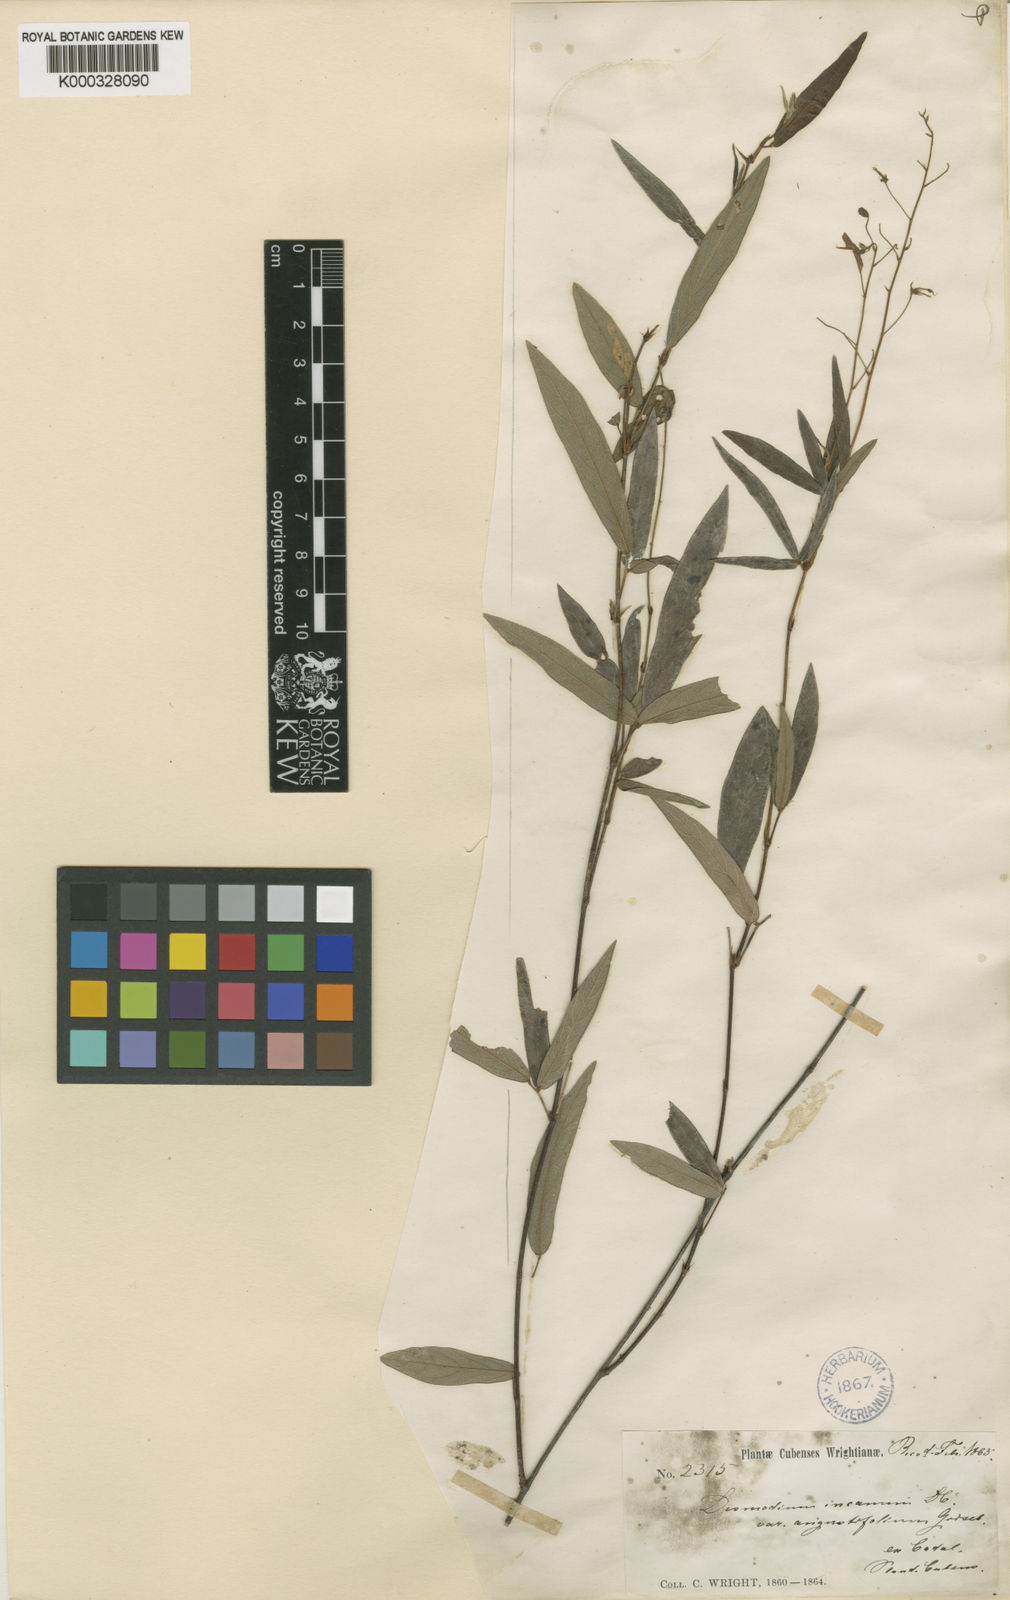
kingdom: Plantae
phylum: Tracheophyta
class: Magnoliopsida
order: Fabales
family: Fabaceae
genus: Desmodium
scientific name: Desmodium incanum
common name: Tickclover
